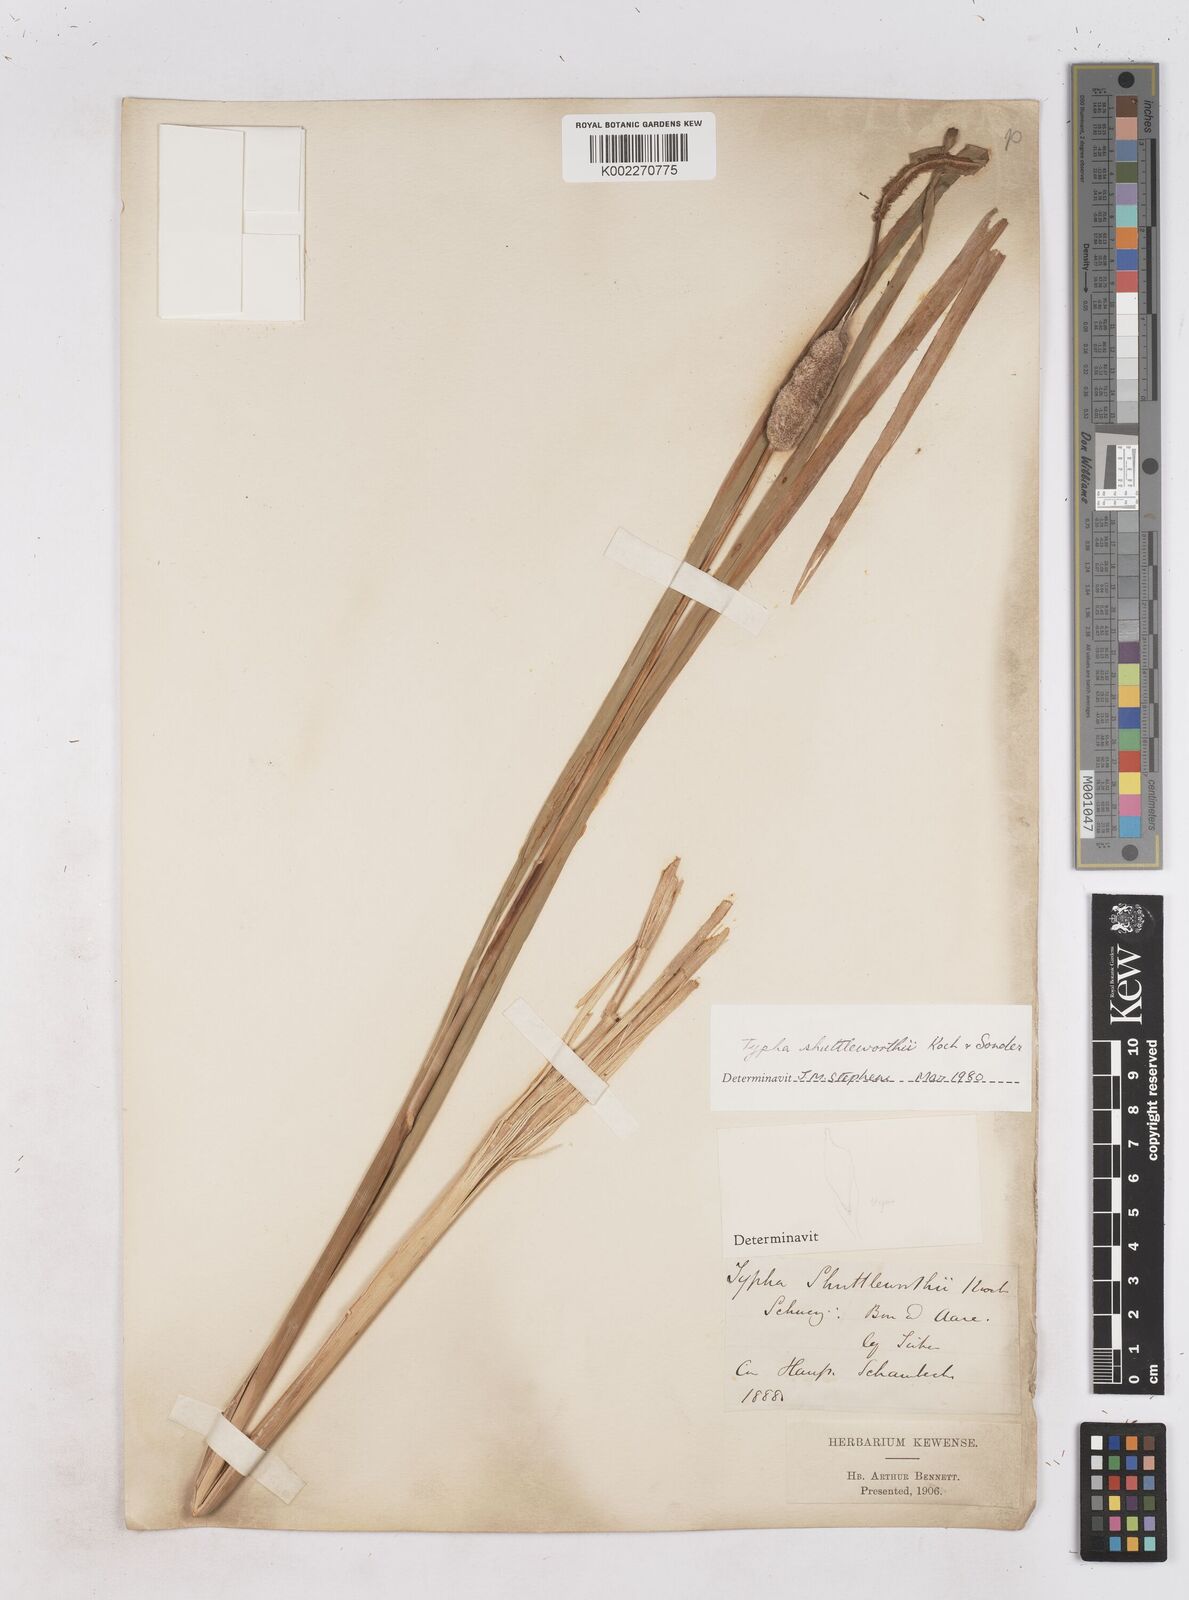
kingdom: Plantae
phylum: Tracheophyta
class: Liliopsida
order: Poales
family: Typhaceae
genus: Typha
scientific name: Typha shuttleworthii
